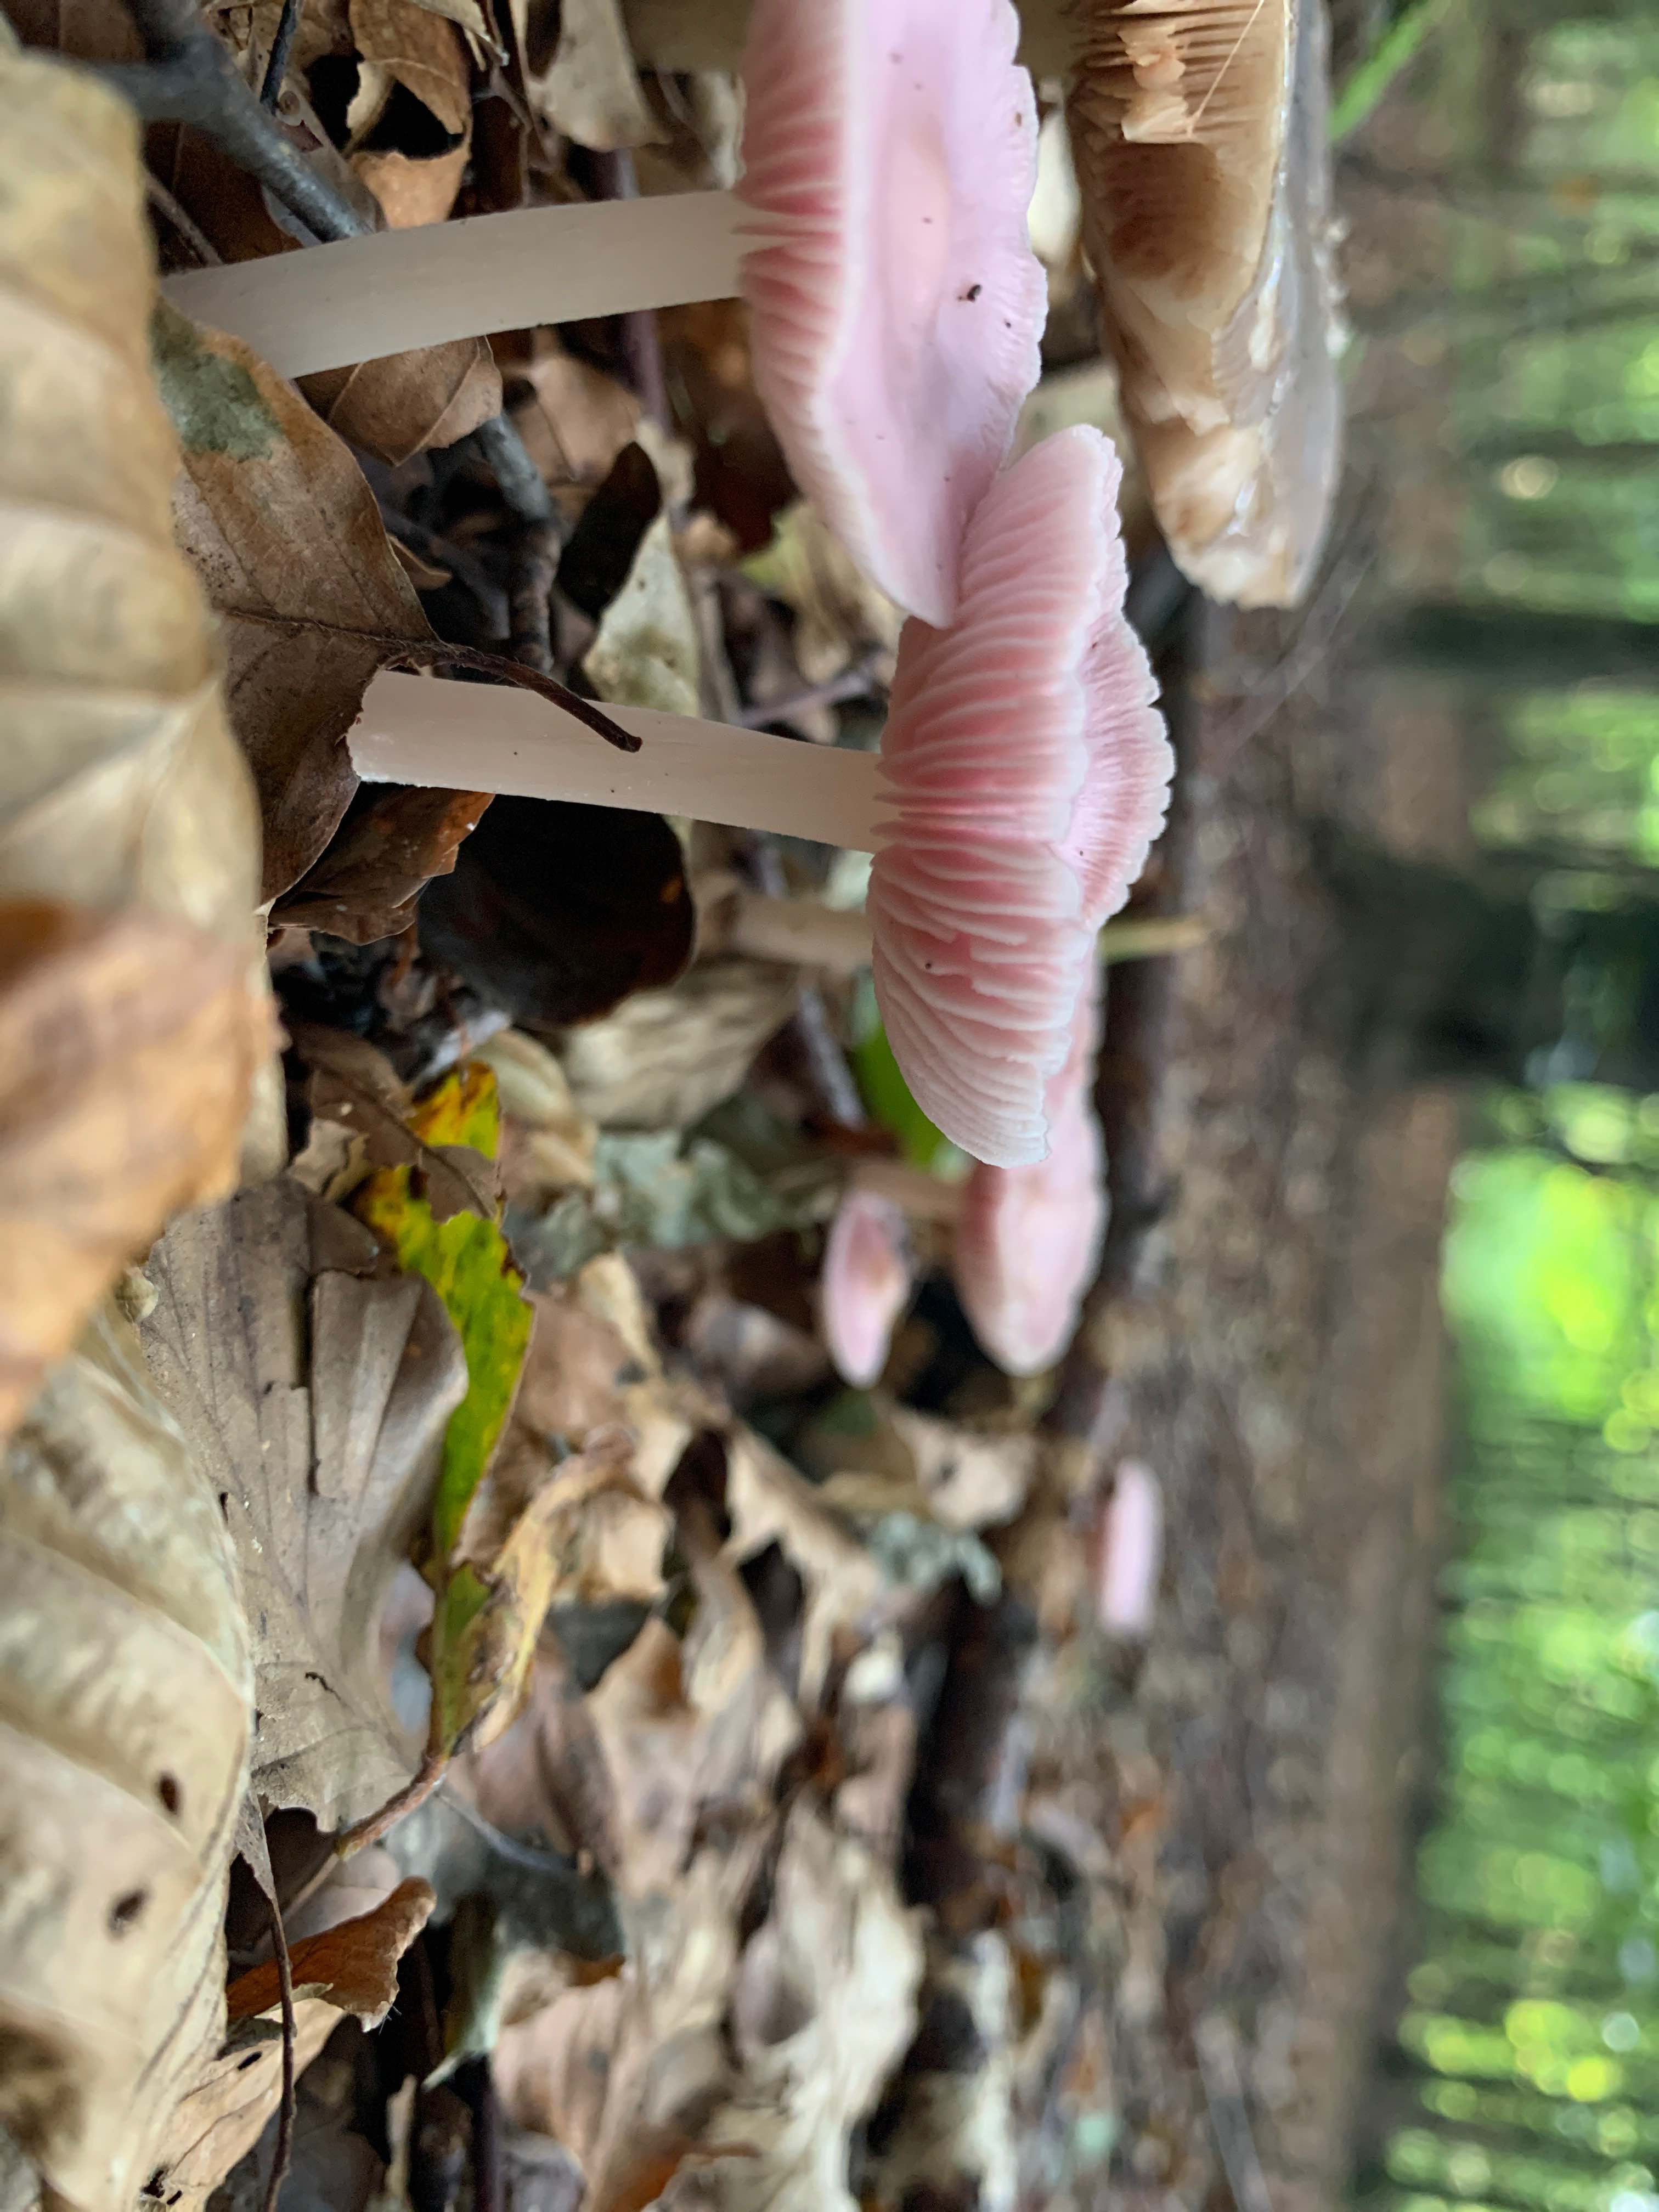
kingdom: Fungi
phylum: Basidiomycota
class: Agaricomycetes
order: Agaricales
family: Mycenaceae
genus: Mycena
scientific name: Mycena rosea
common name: rosa huesvamp
